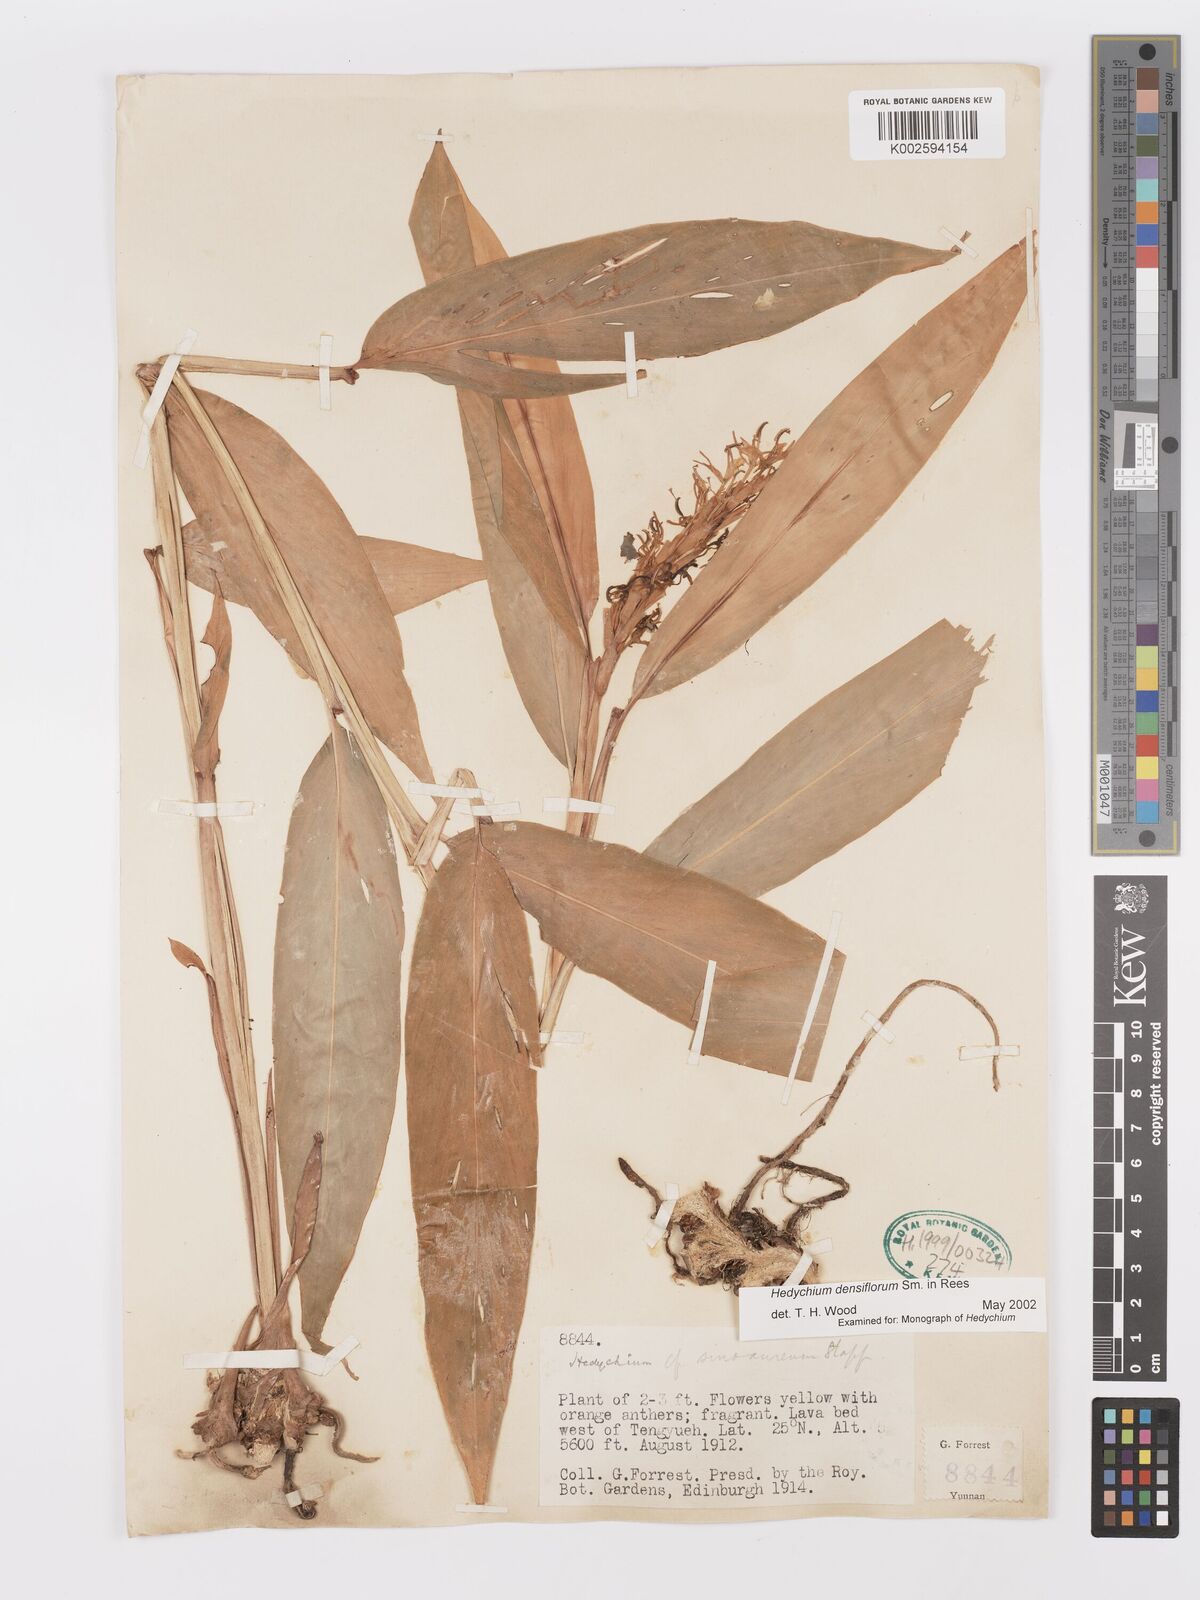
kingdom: Plantae
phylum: Tracheophyta
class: Liliopsida
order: Zingiberales
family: Zingiberaceae
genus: Hedychium
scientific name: Hedychium densiflorum
